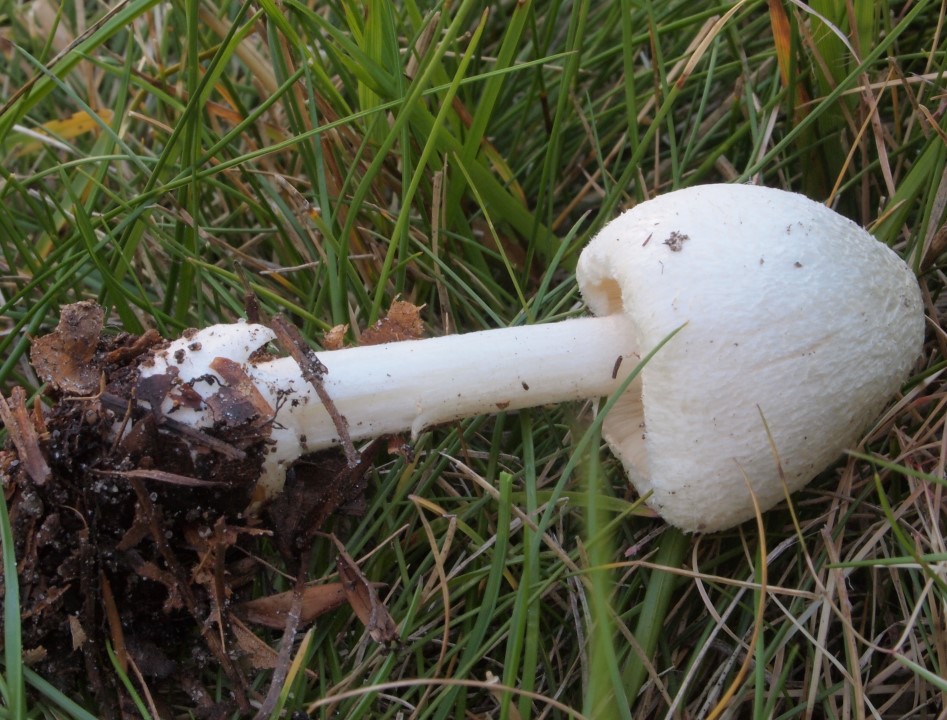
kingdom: Fungi
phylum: Basidiomycota
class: Agaricomycetes
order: Agaricales
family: Pluteaceae
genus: Volvariella
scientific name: Volvariella hypopithys
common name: dunstokket posesvamp
